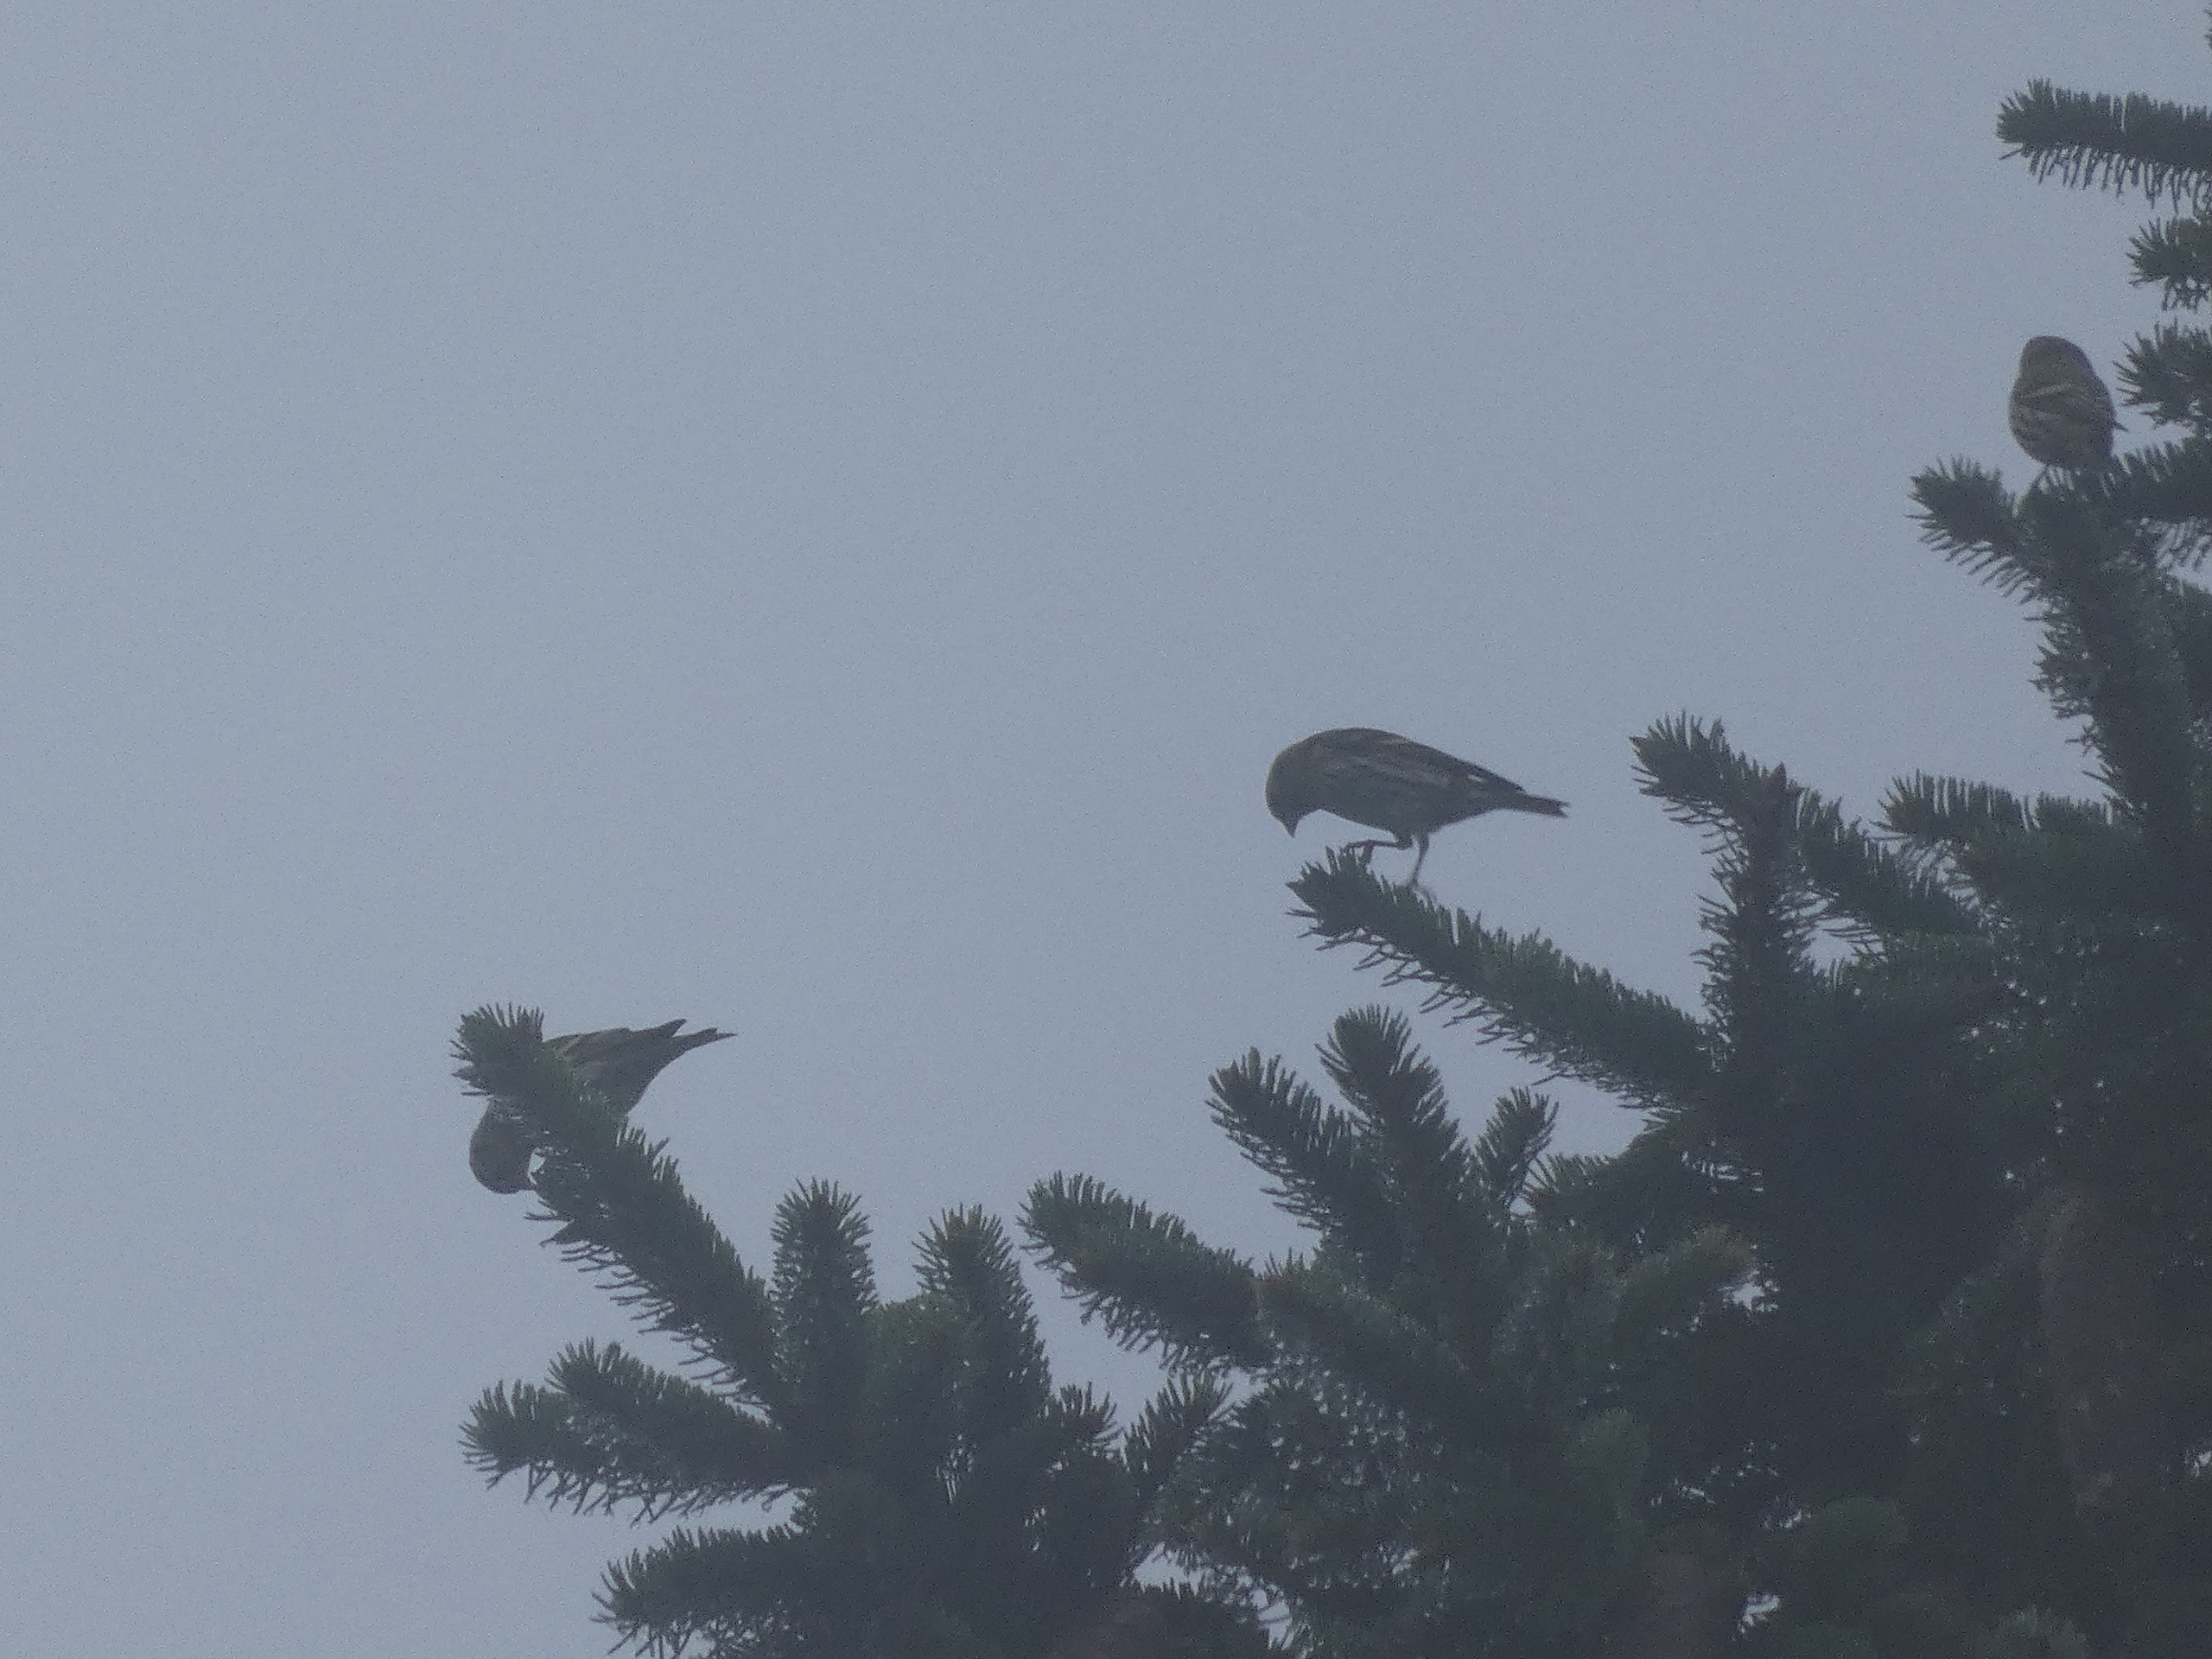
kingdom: Animalia
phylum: Chordata
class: Aves
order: Passeriformes
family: Fringillidae
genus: Spinus
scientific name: Spinus spinus
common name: Grønsisken
